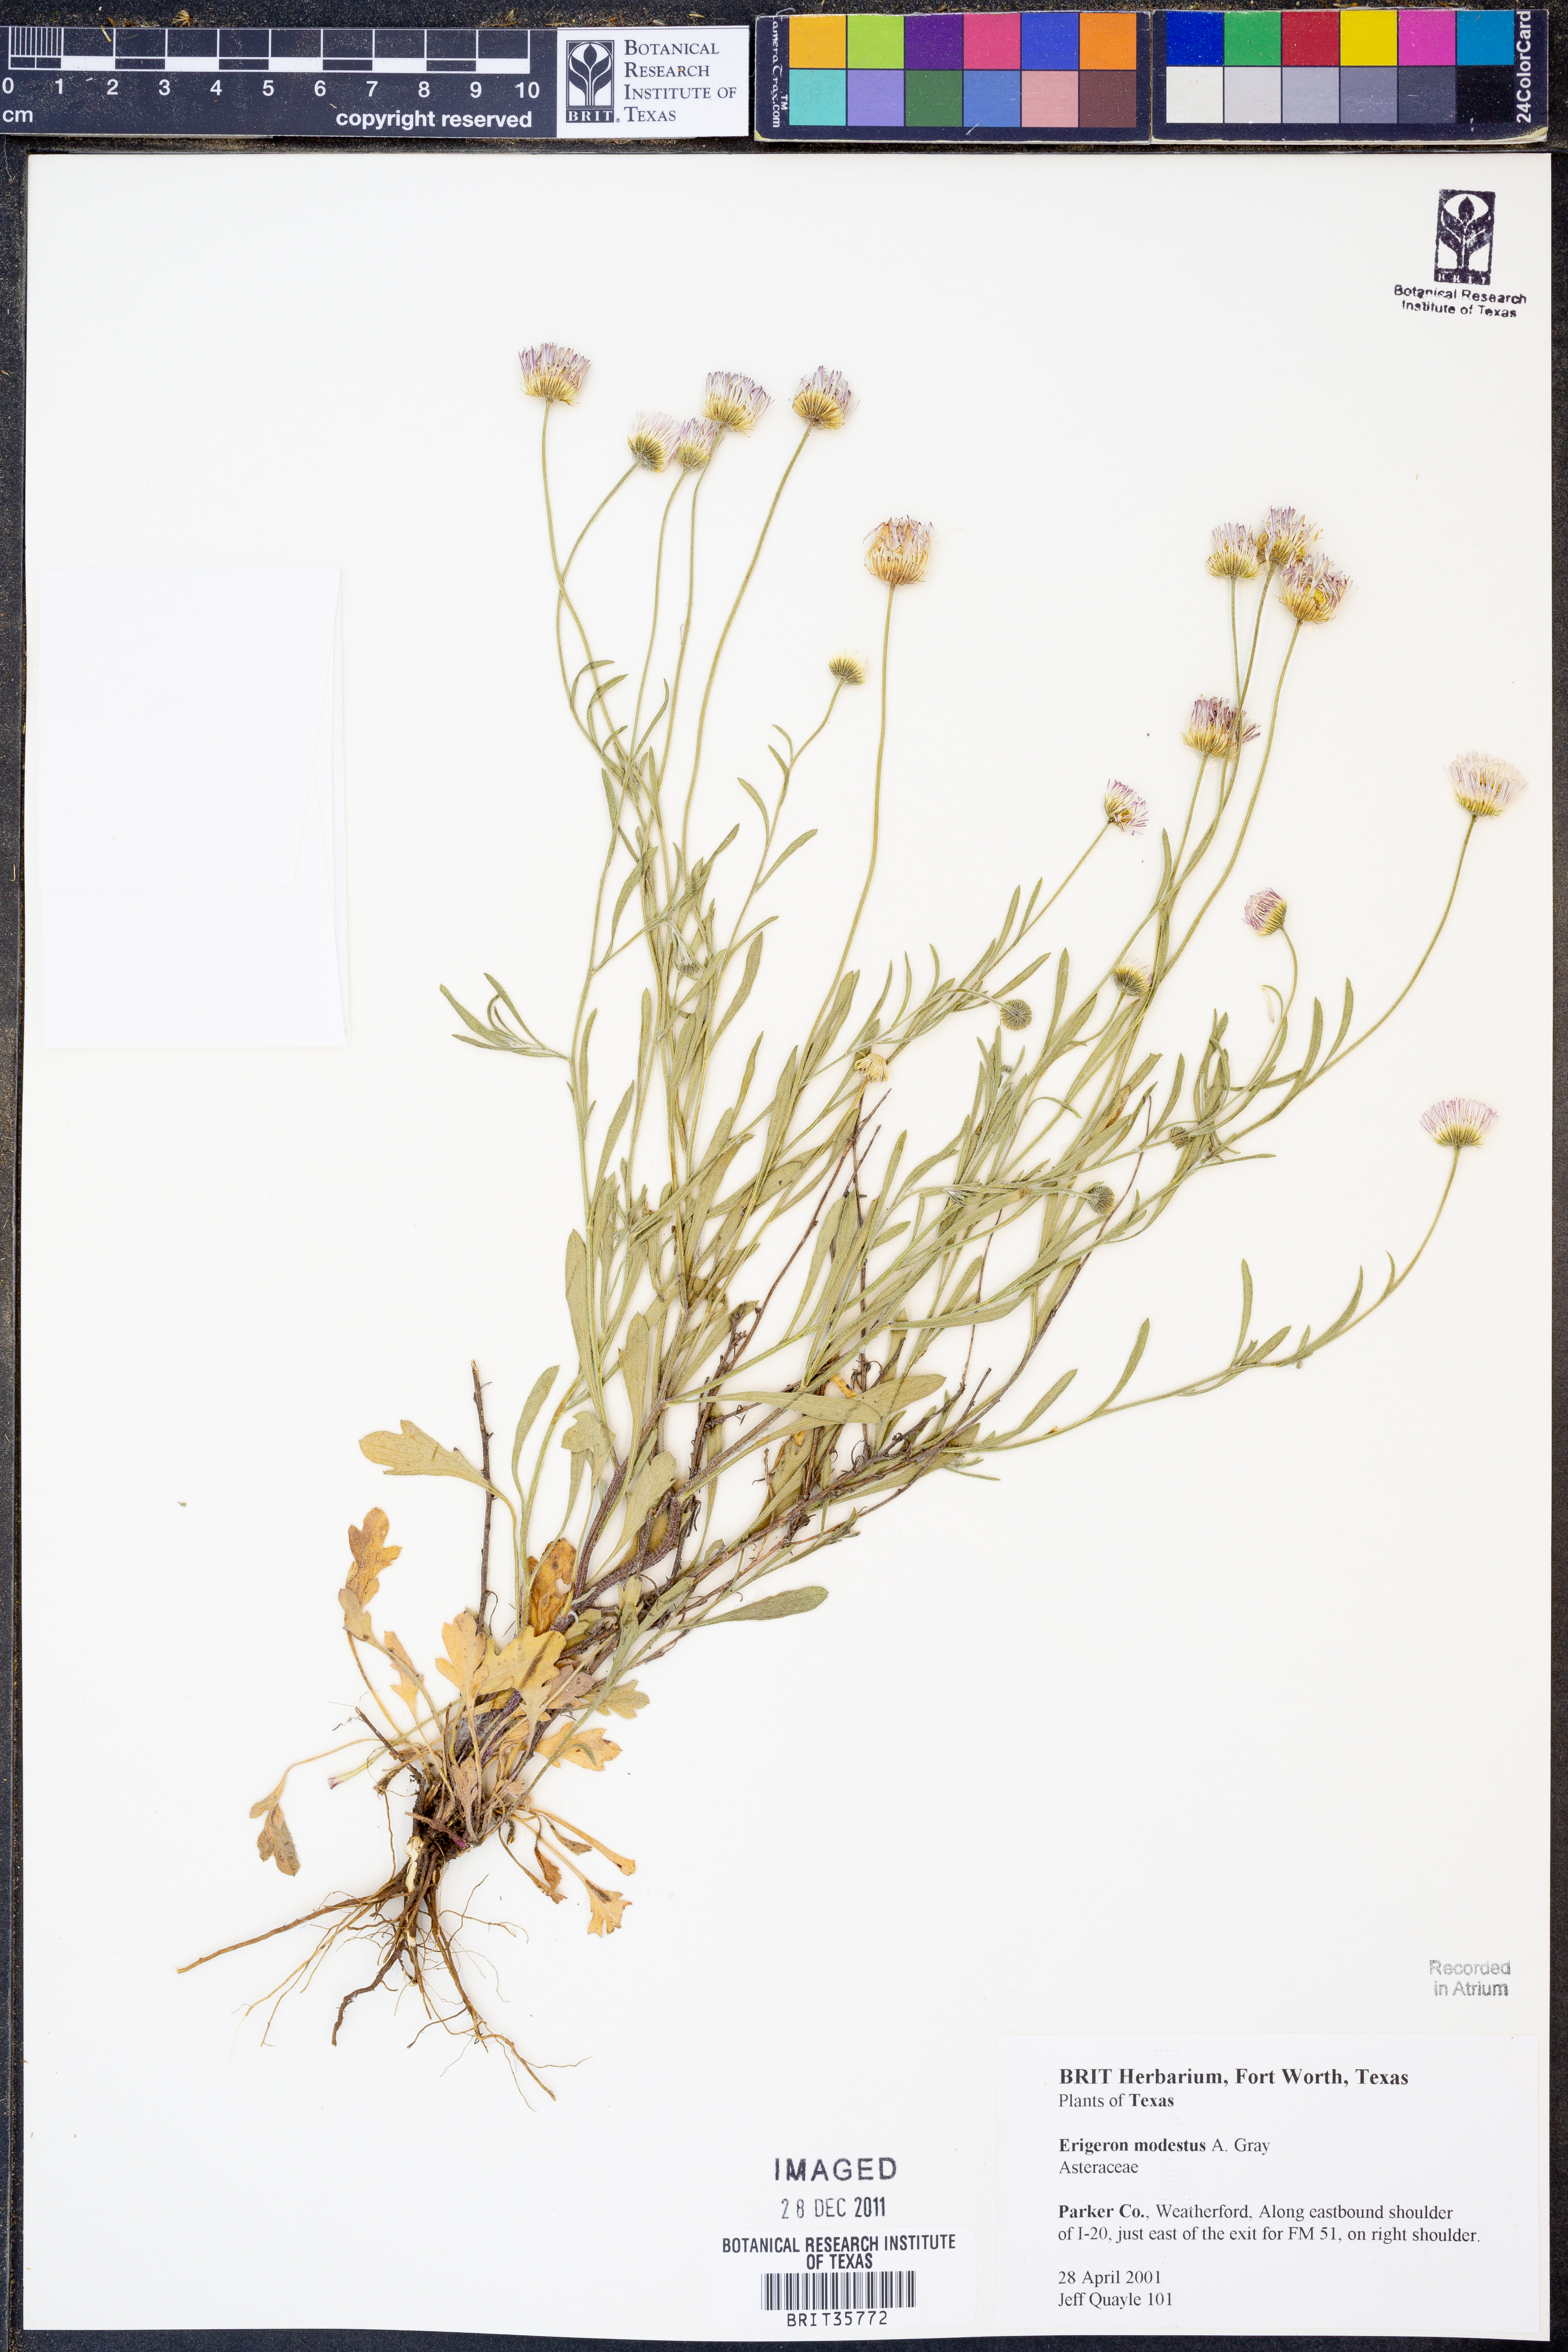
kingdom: Plantae
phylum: Tracheophyta
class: Magnoliopsida
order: Asterales
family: Asteraceae
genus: Erigeron
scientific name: Erigeron modestus
